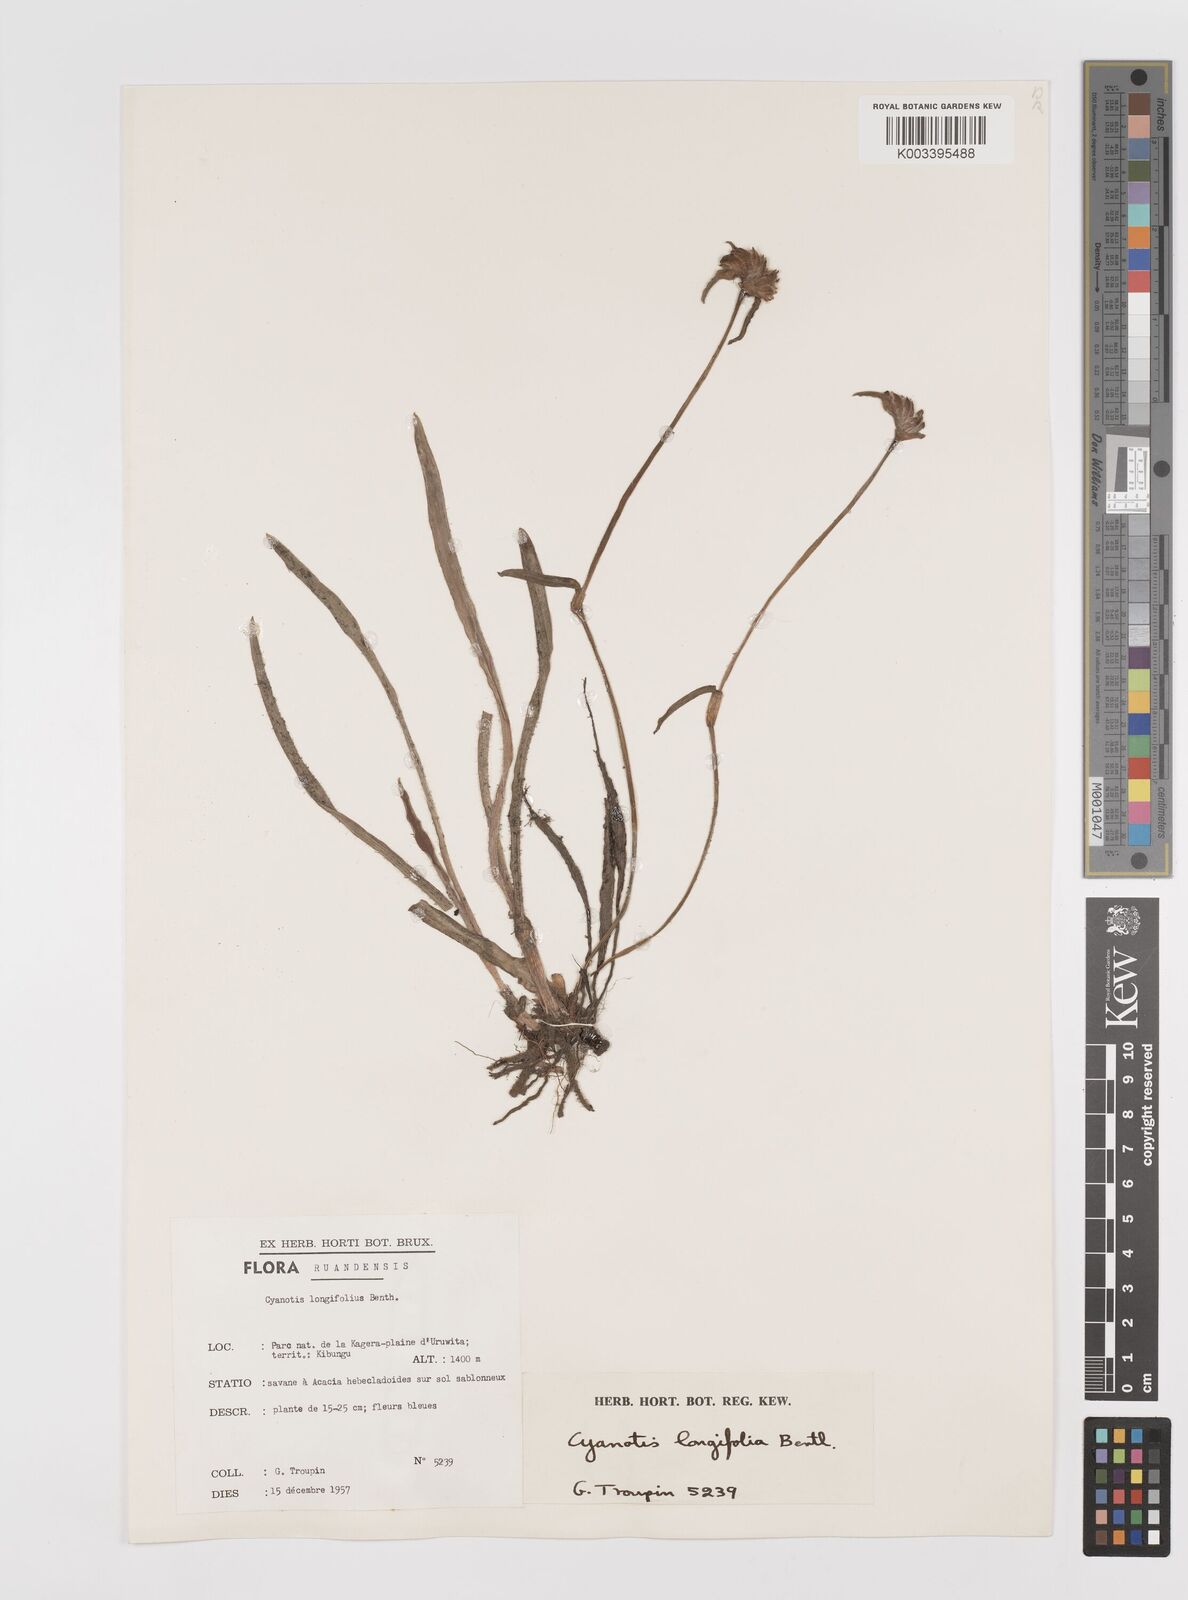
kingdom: Plantae
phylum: Tracheophyta
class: Liliopsida
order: Commelinales
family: Commelinaceae
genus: Cyanotis
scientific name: Cyanotis longifolia
